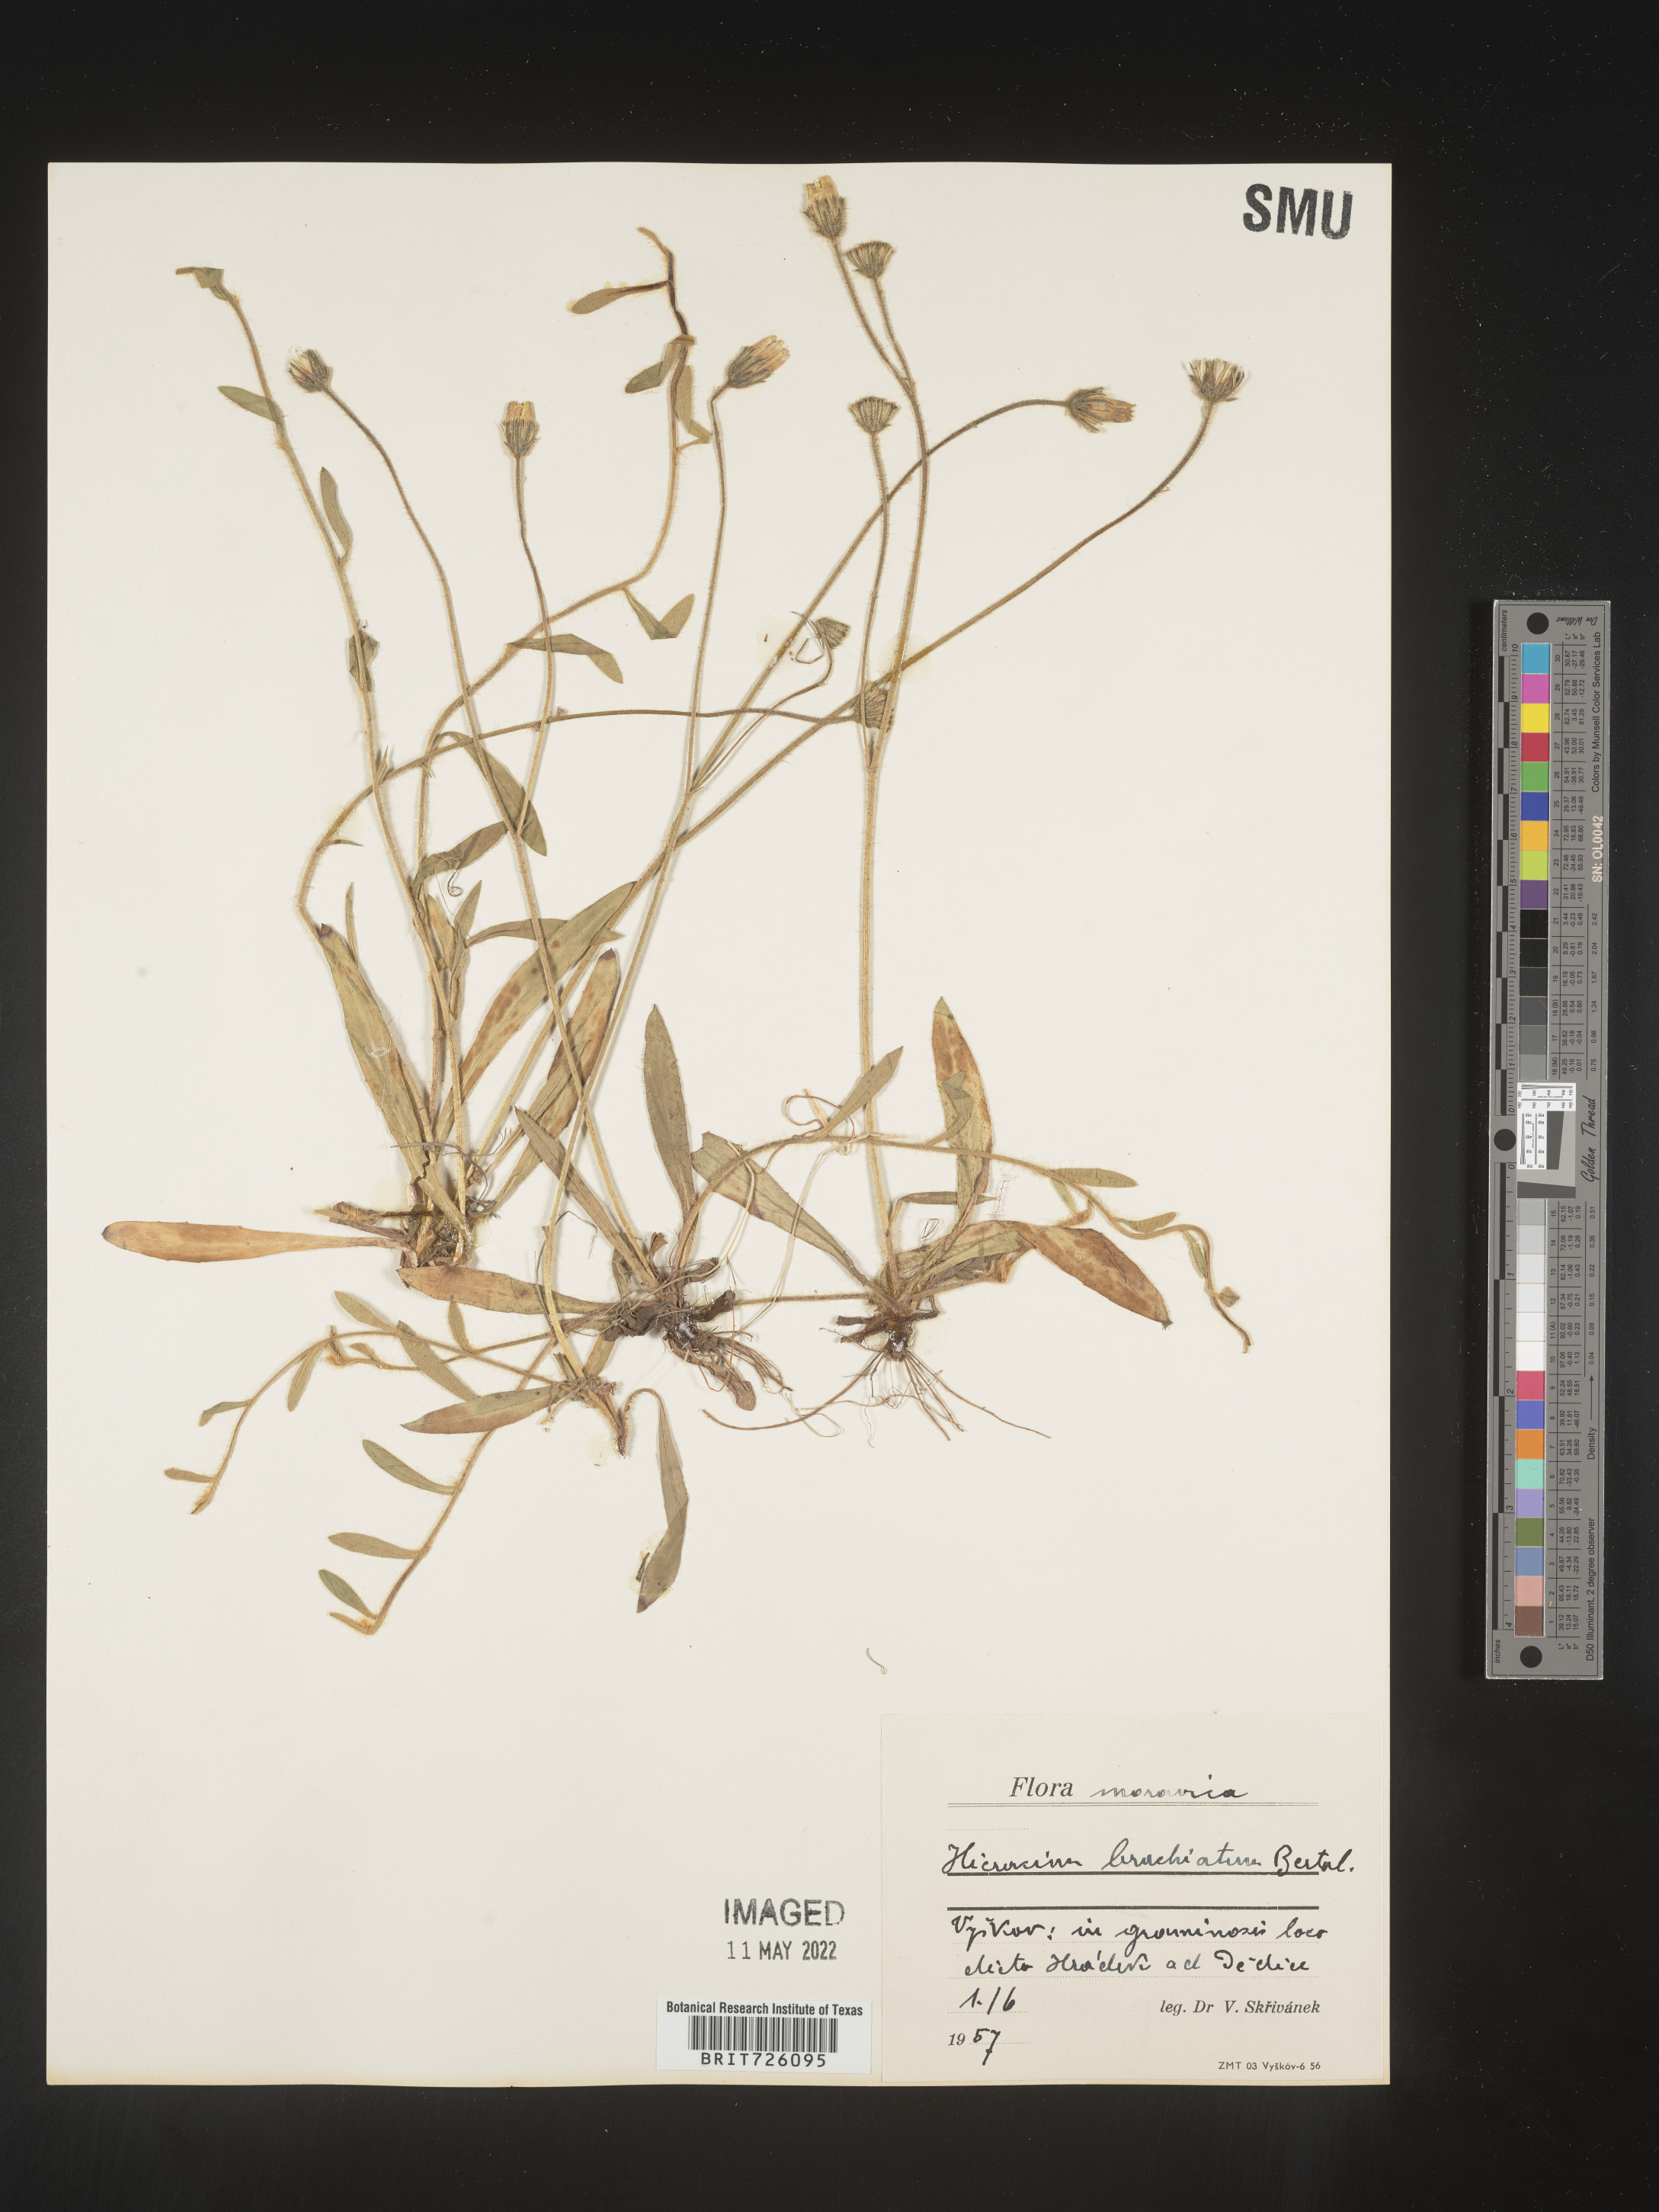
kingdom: Plantae
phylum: Tracheophyta
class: Magnoliopsida
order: Asterales
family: Asteraceae
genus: Hieracium
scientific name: Hieracium
